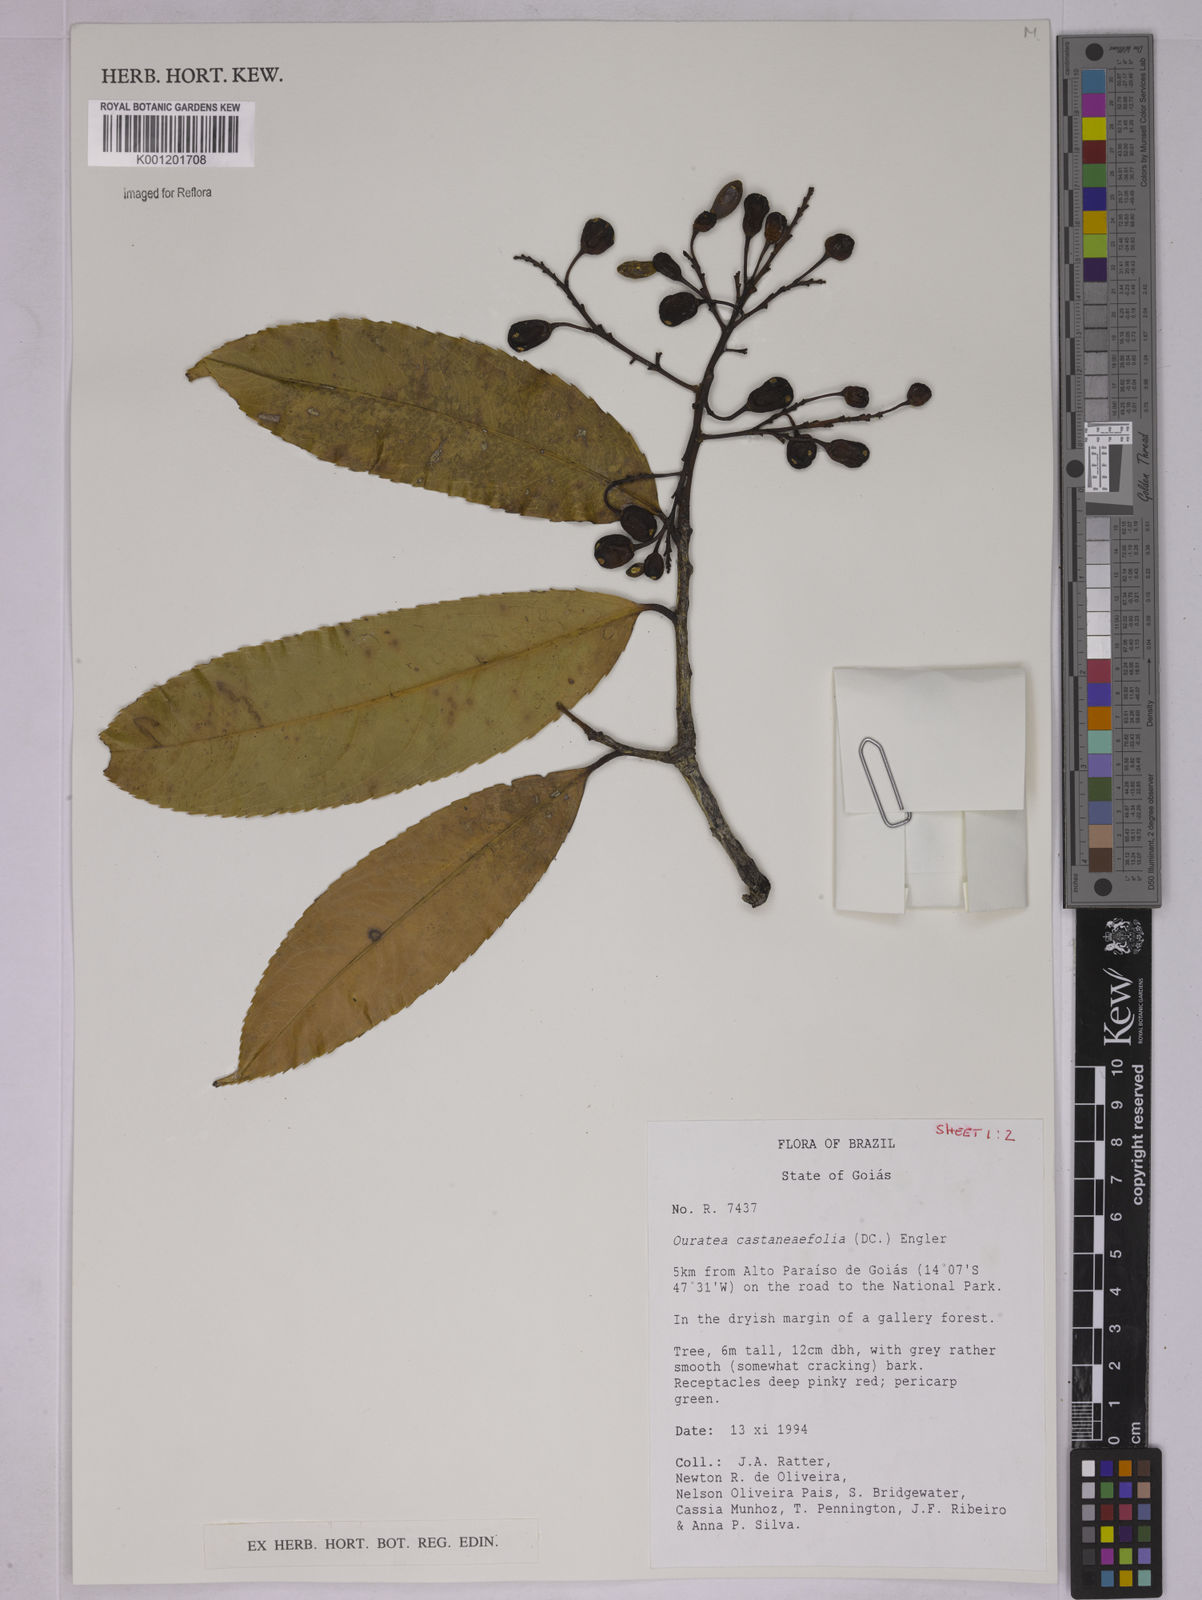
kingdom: Plantae
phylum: Tracheophyta
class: Magnoliopsida
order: Malpighiales
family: Ochnaceae
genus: Ouratea
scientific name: Ouratea castaneifolia
